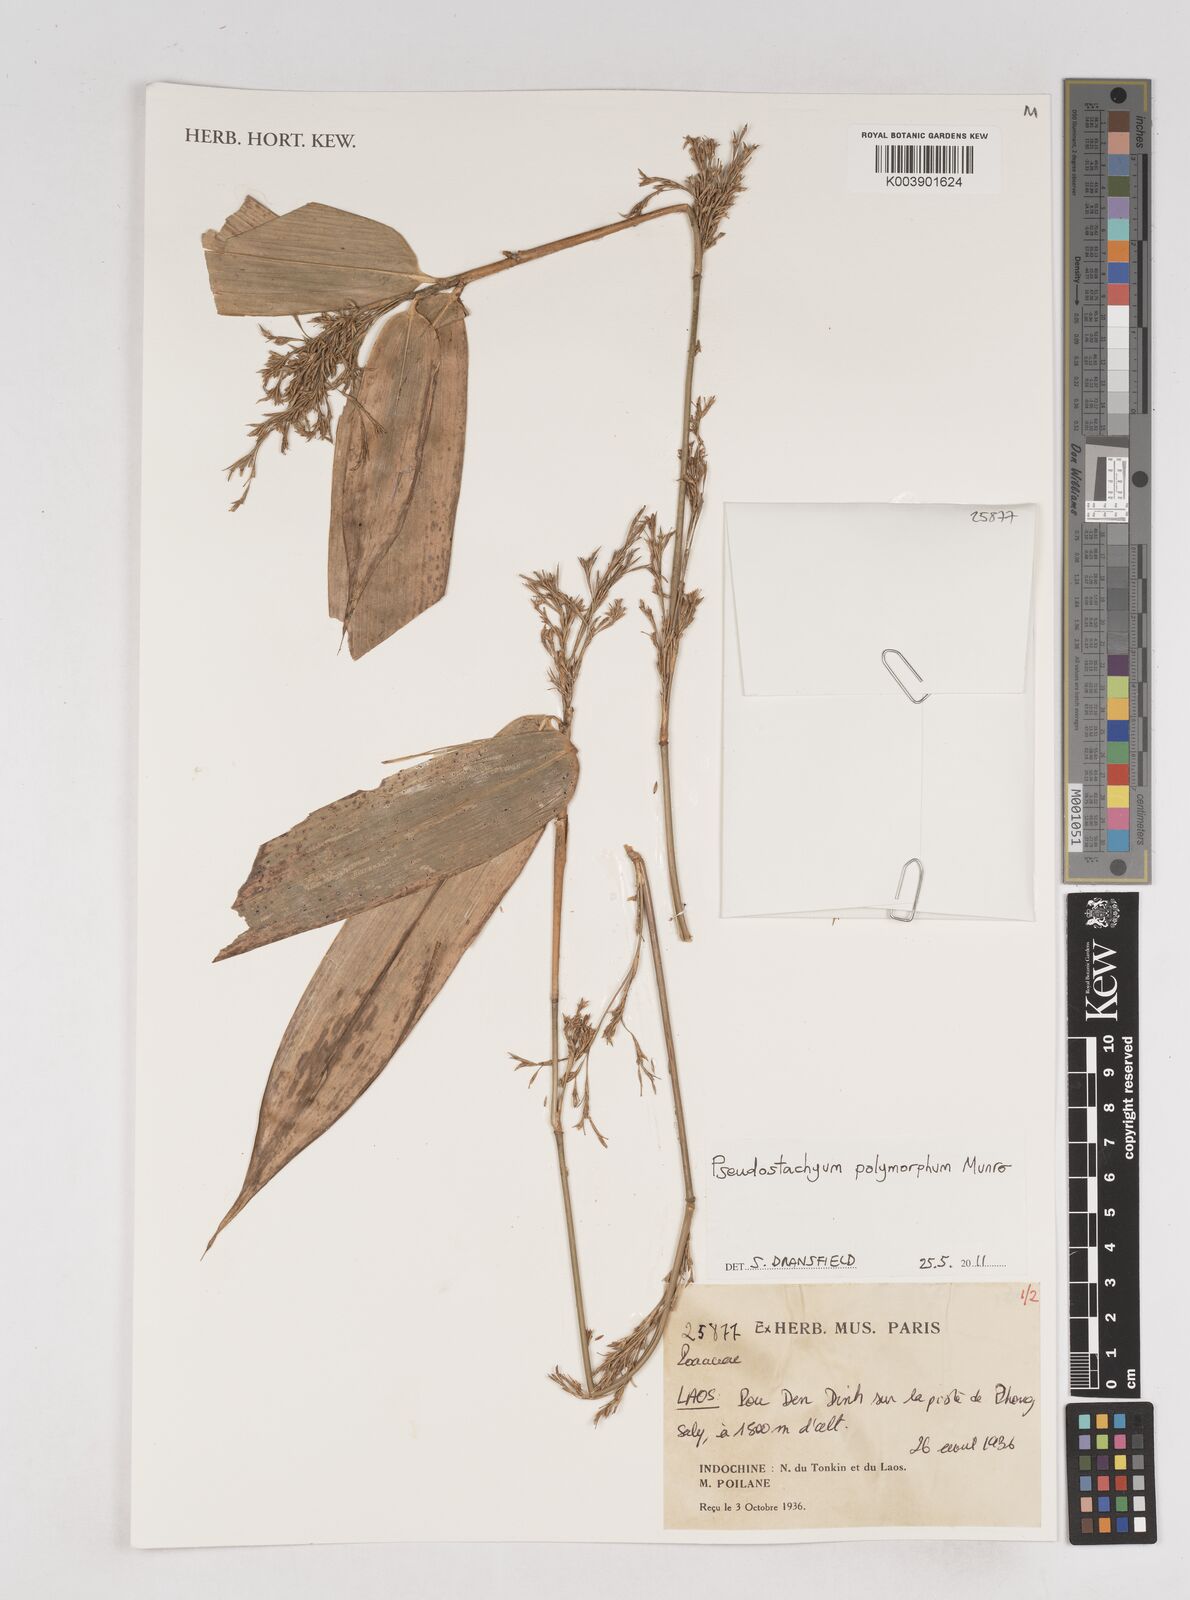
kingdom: Plantae
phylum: Tracheophyta
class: Liliopsida
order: Poales
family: Poaceae
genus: Pseudostachyum
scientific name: Pseudostachyum polymorphum
